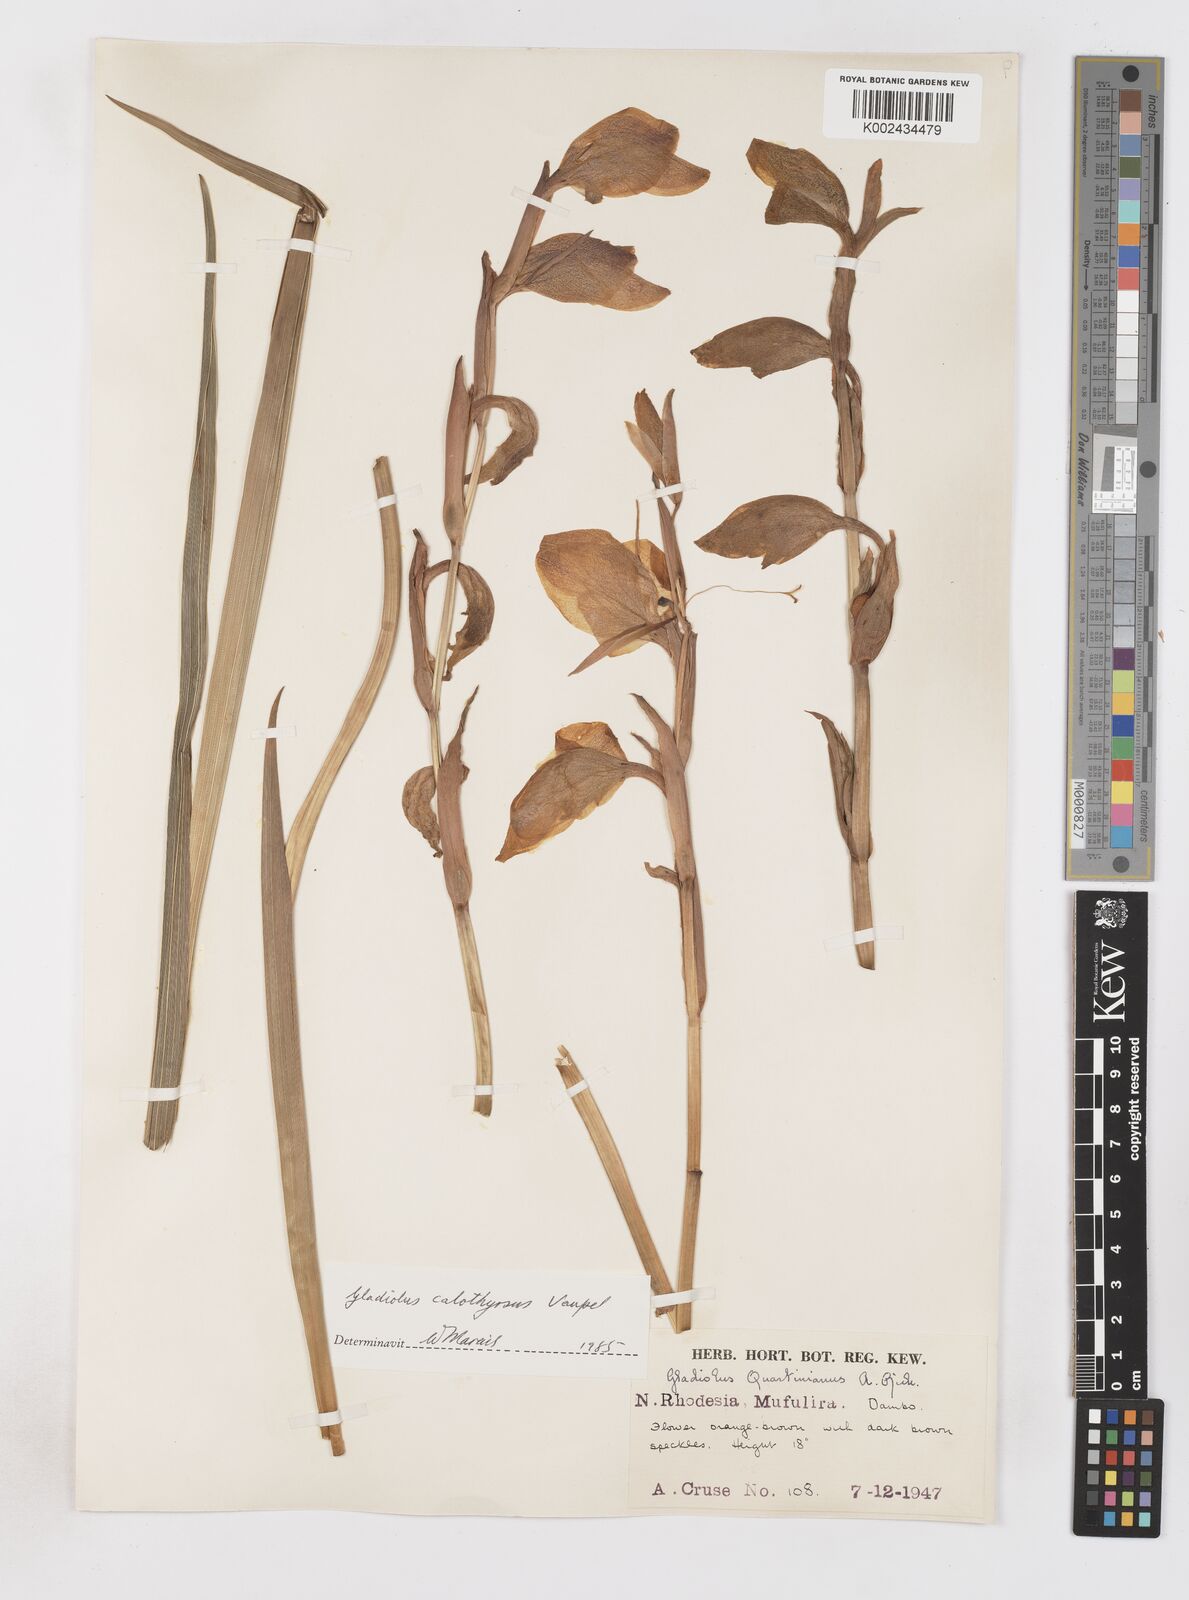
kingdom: Plantae
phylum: Tracheophyta
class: Liliopsida
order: Asparagales
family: Iridaceae
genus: Gladiolus
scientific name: Gladiolus dalenii
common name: Cornflag
